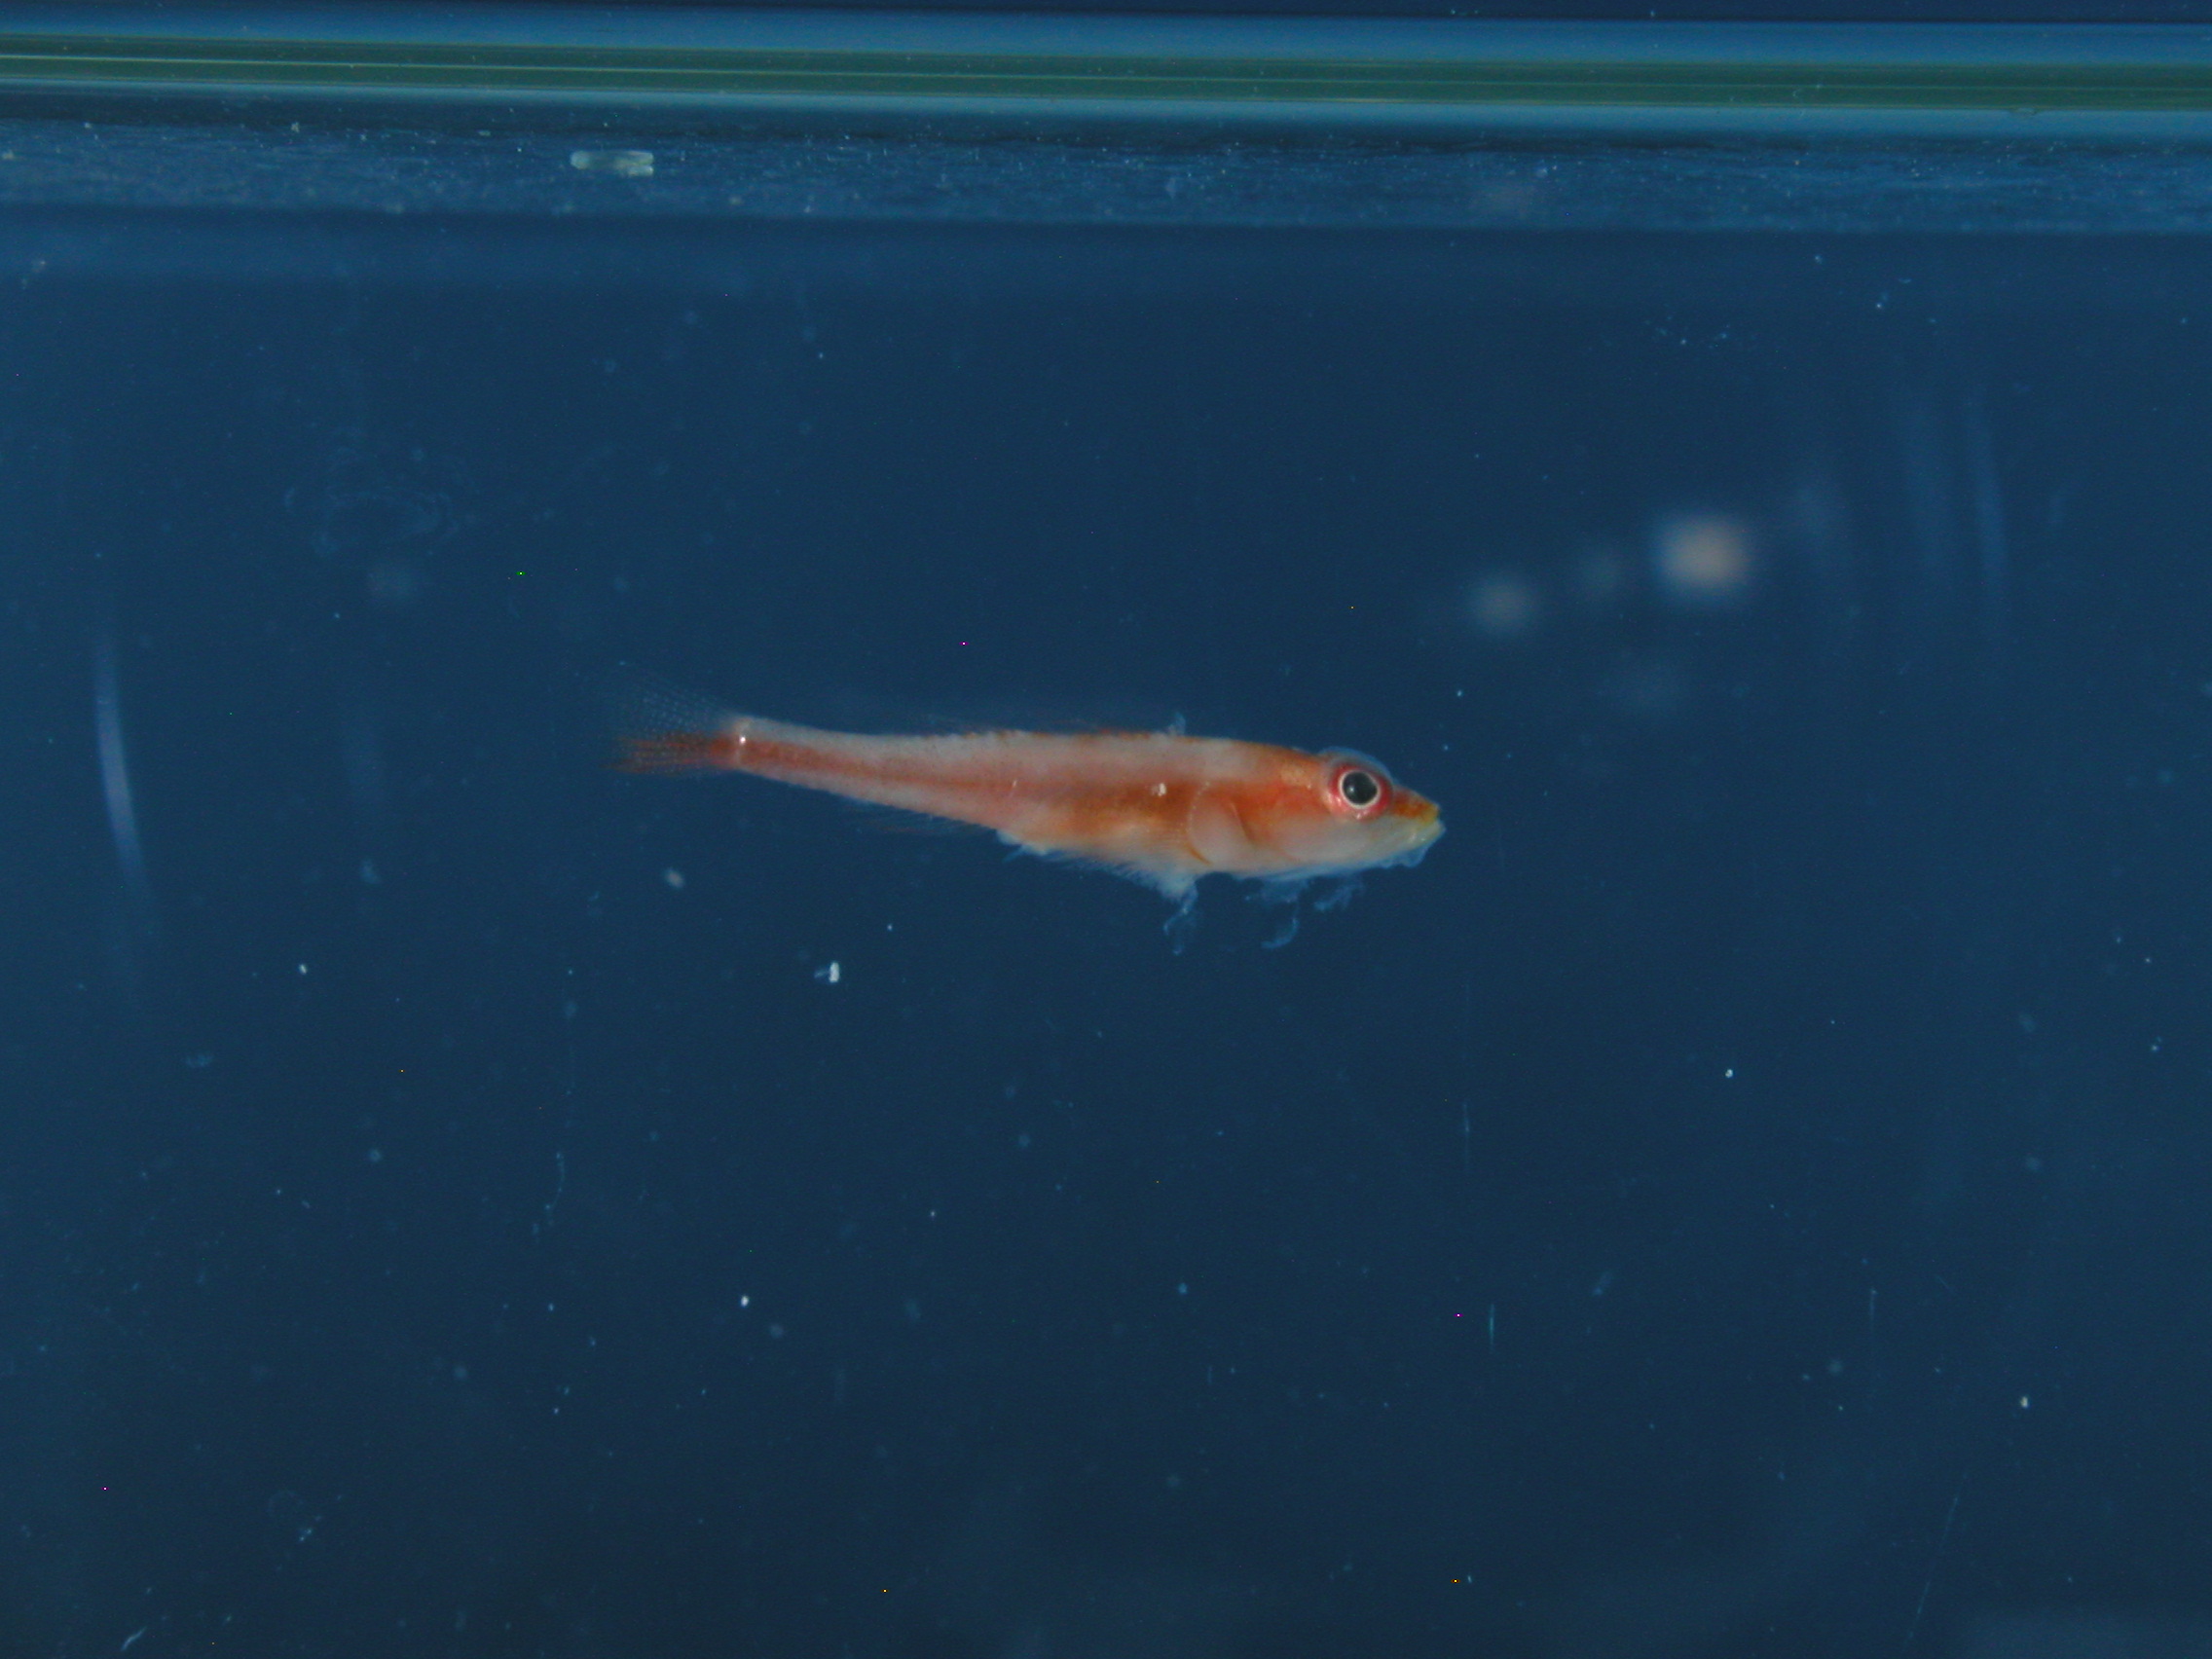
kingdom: Animalia
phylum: Chordata
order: Perciformes
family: Gobiidae
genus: Pleurosicya
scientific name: Pleurosicya mossambica
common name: Common ghost goby
